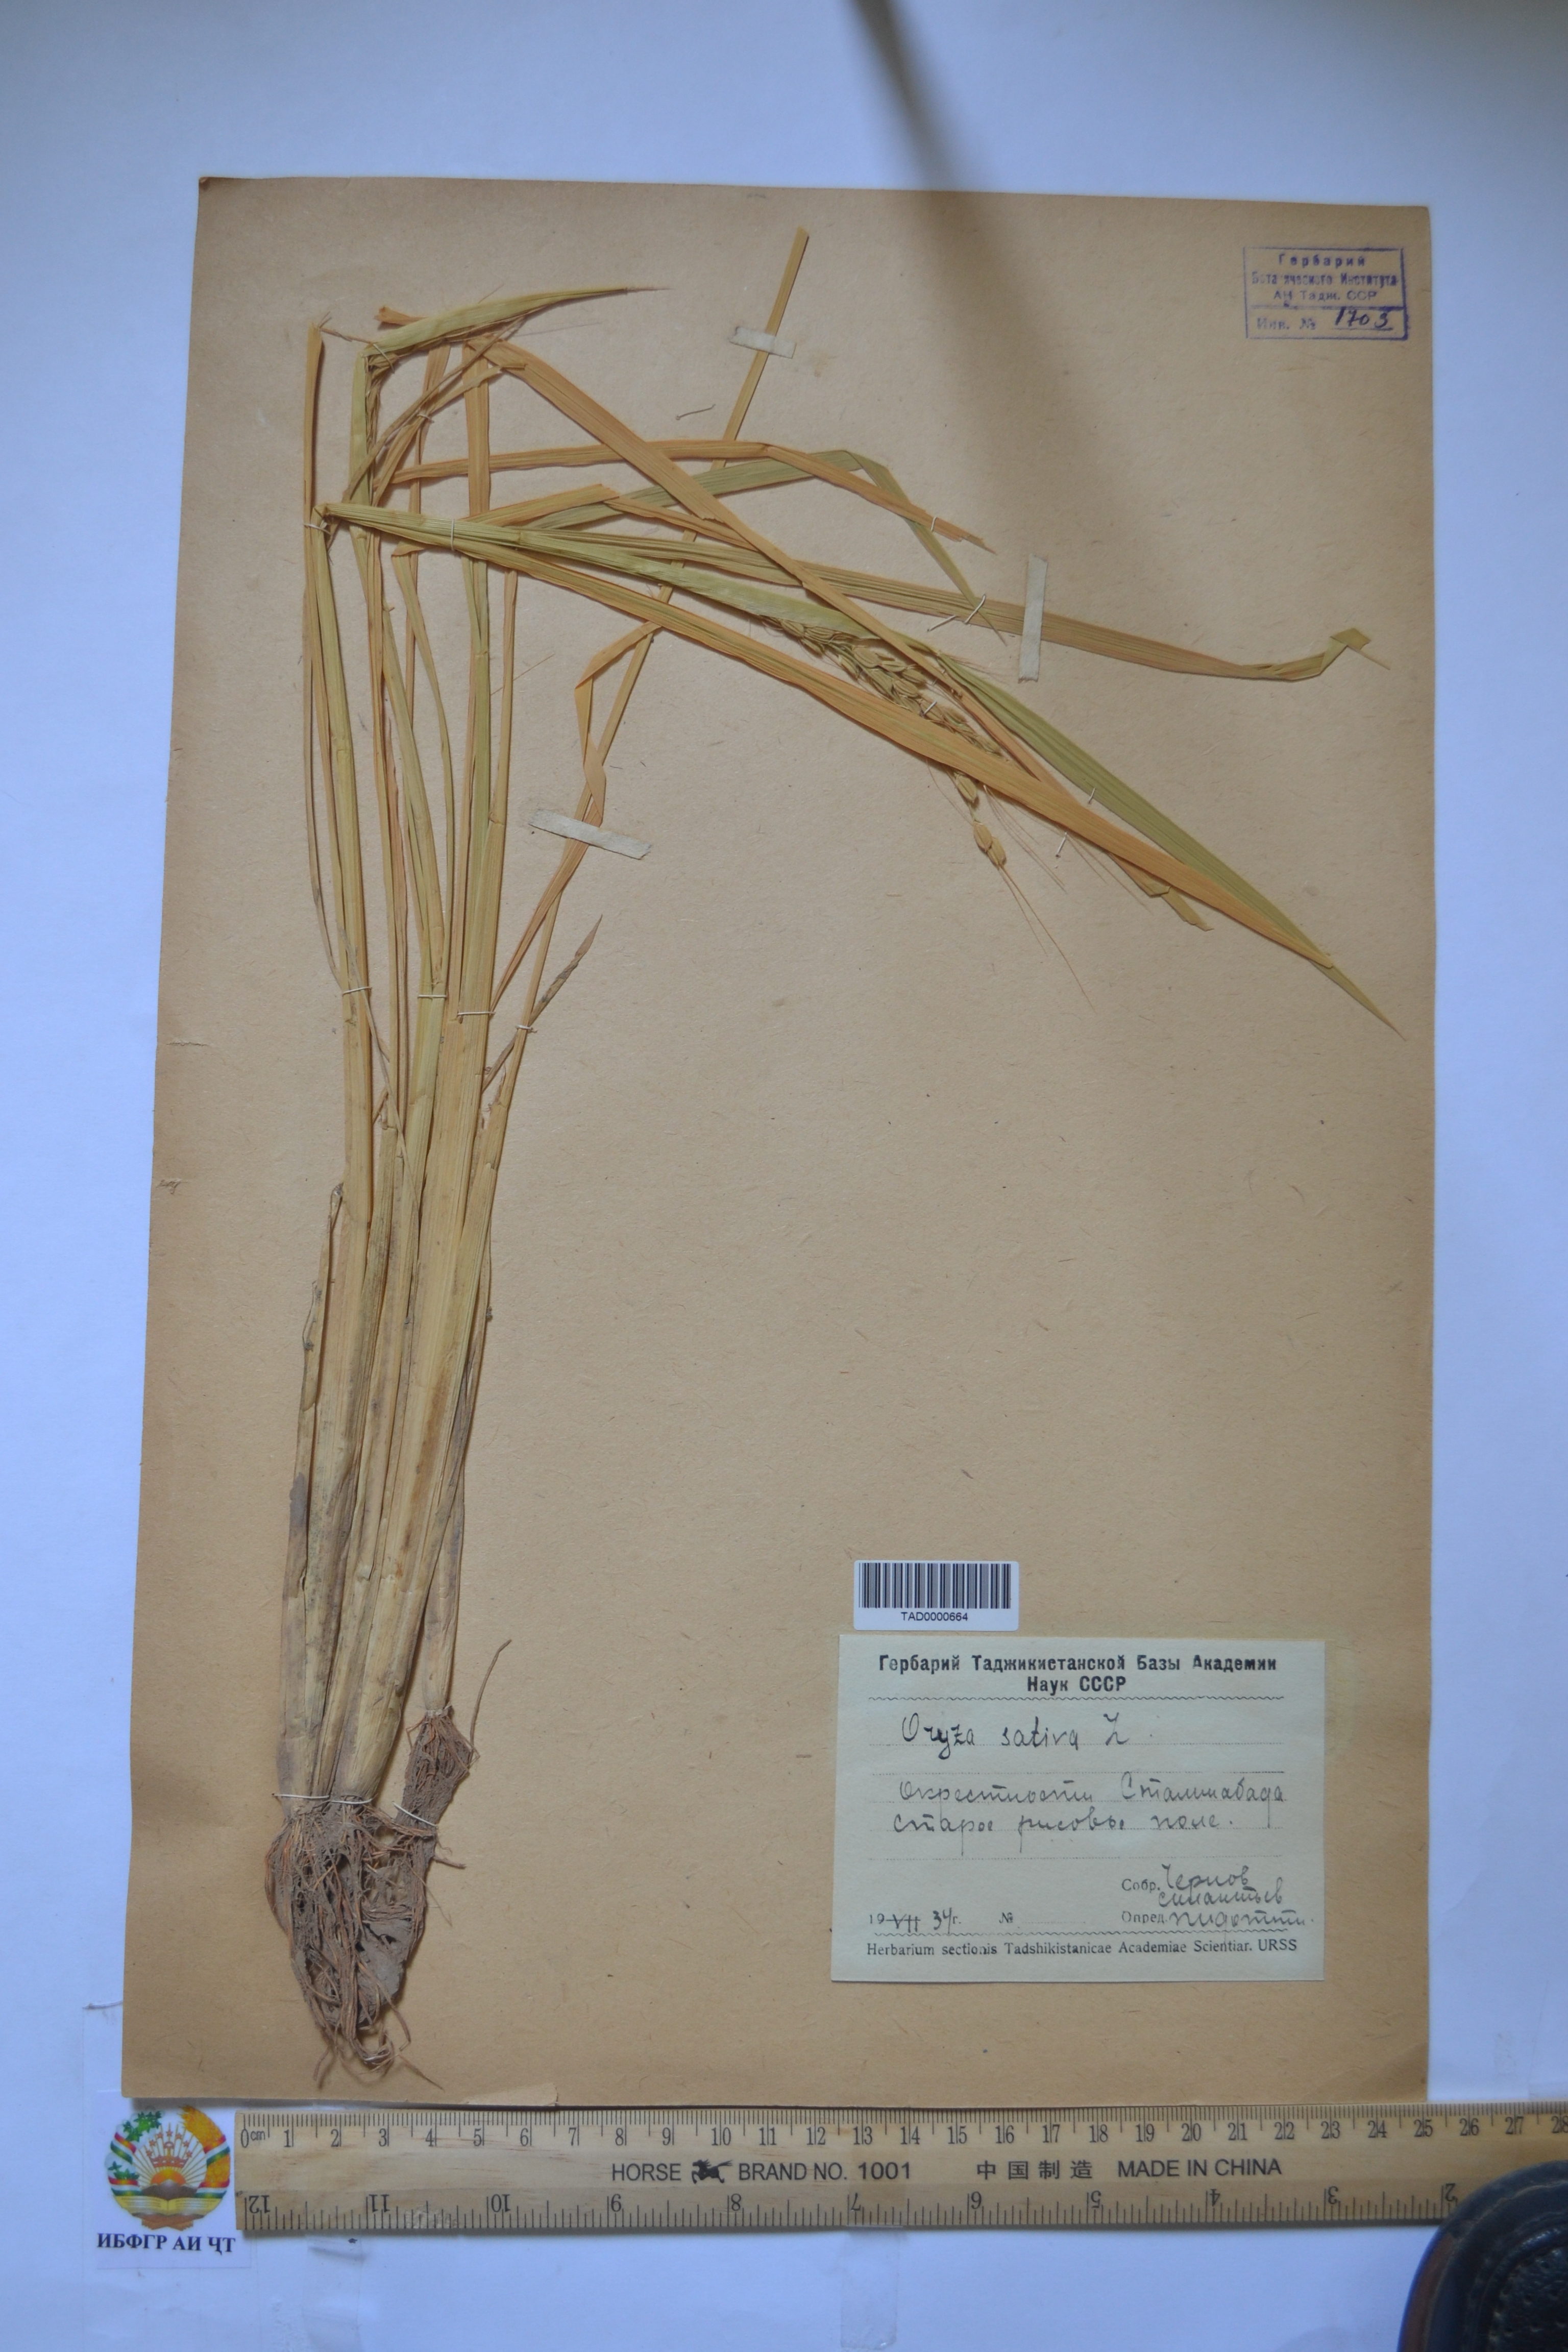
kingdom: Plantae
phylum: Tracheophyta
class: Liliopsida
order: Poales
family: Poaceae
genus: Oryza
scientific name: Oryza sativa
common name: Rice
